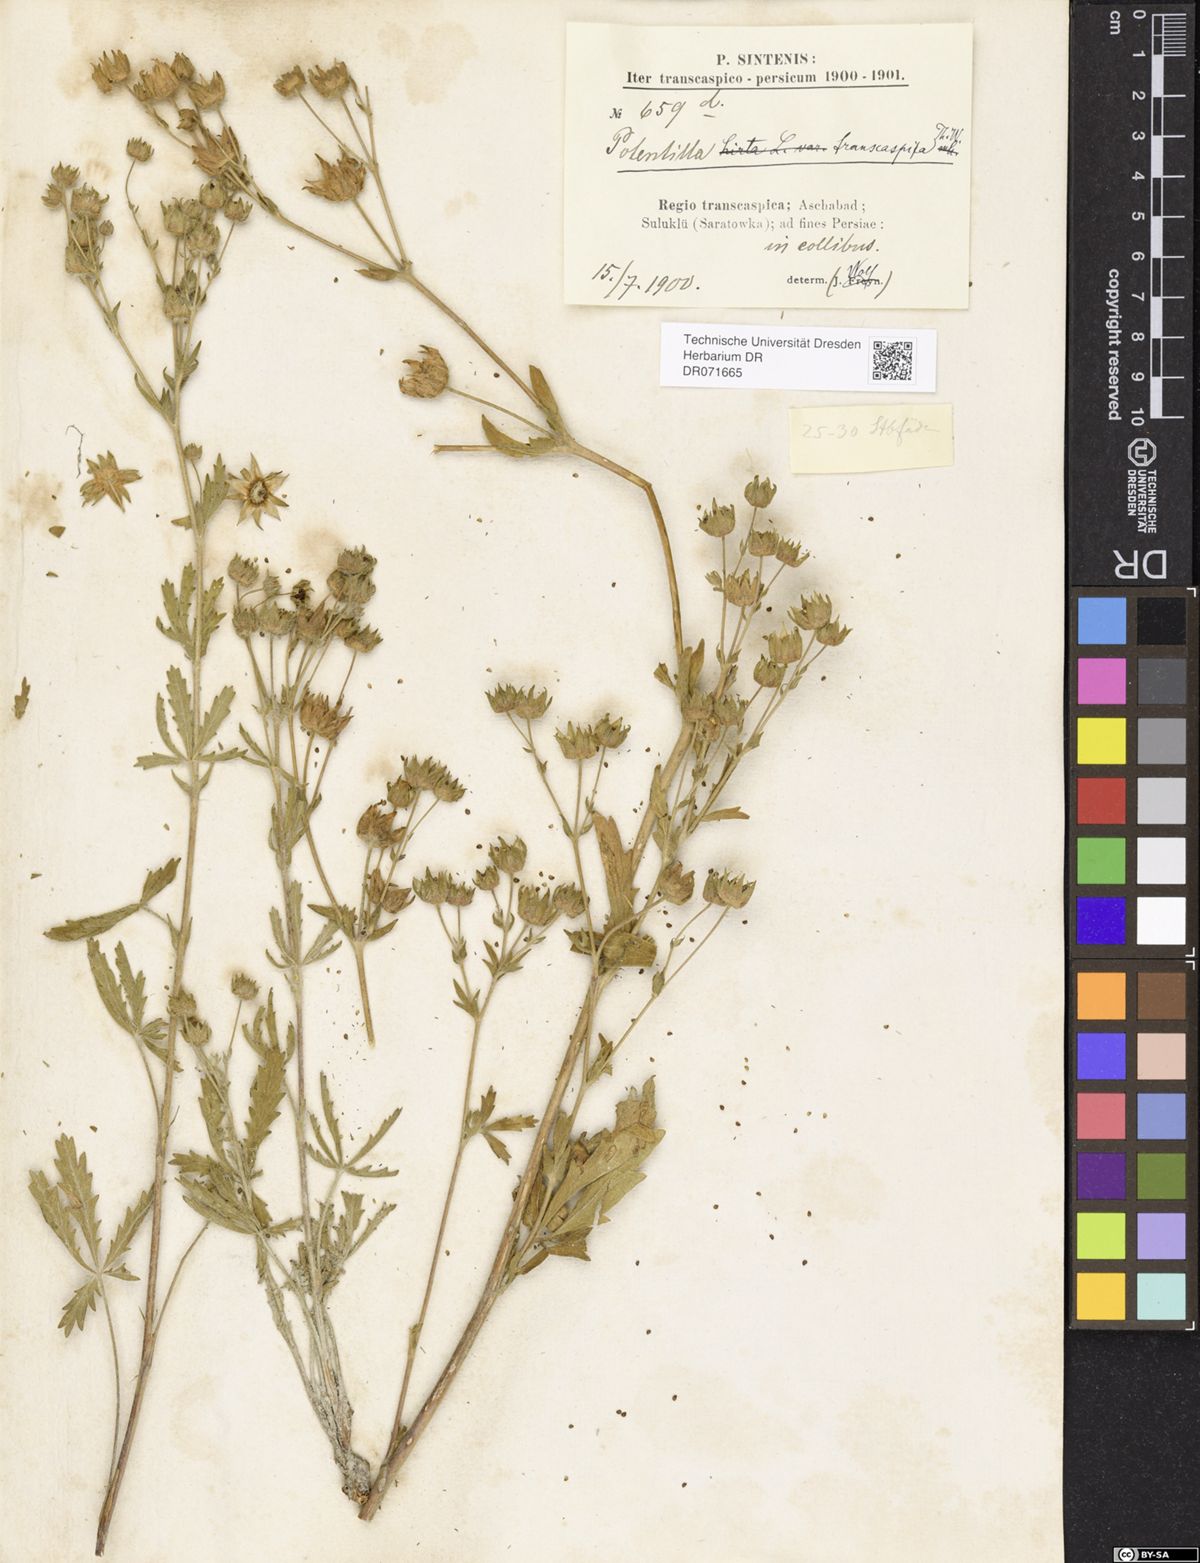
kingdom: Plantae
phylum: Tracheophyta
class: Magnoliopsida
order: Rosales
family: Rosaceae
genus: Potentilla
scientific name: Potentilla pedata
